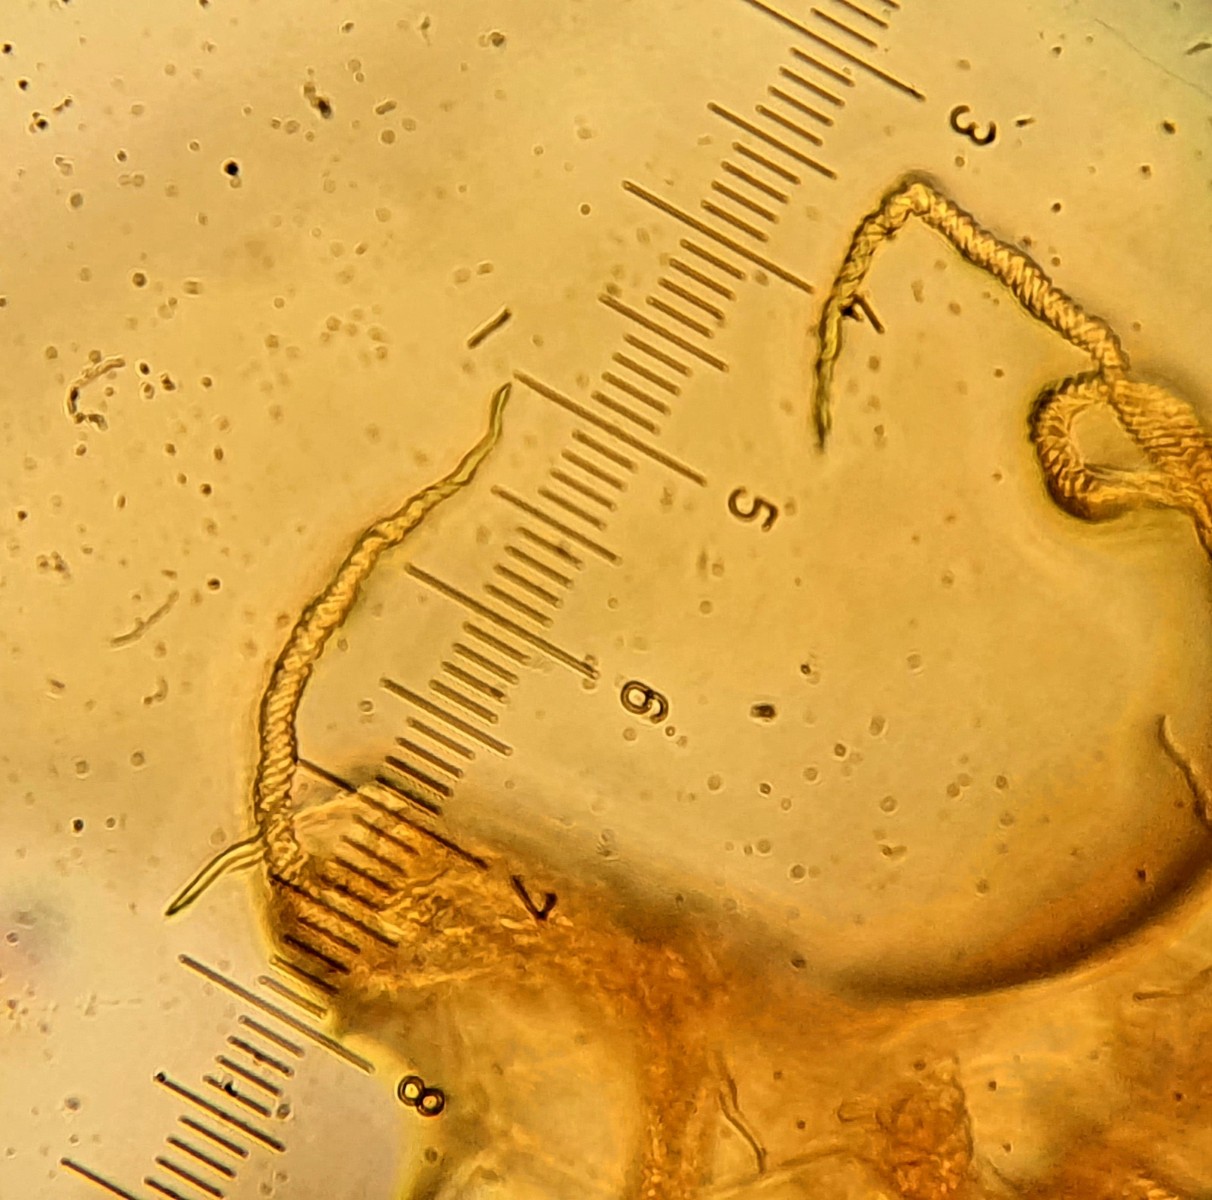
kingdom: Protozoa
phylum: Mycetozoa
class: Myxomycetes
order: Trichiales
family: Trichiaceae
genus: Trichia
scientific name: Trichia ambigua
